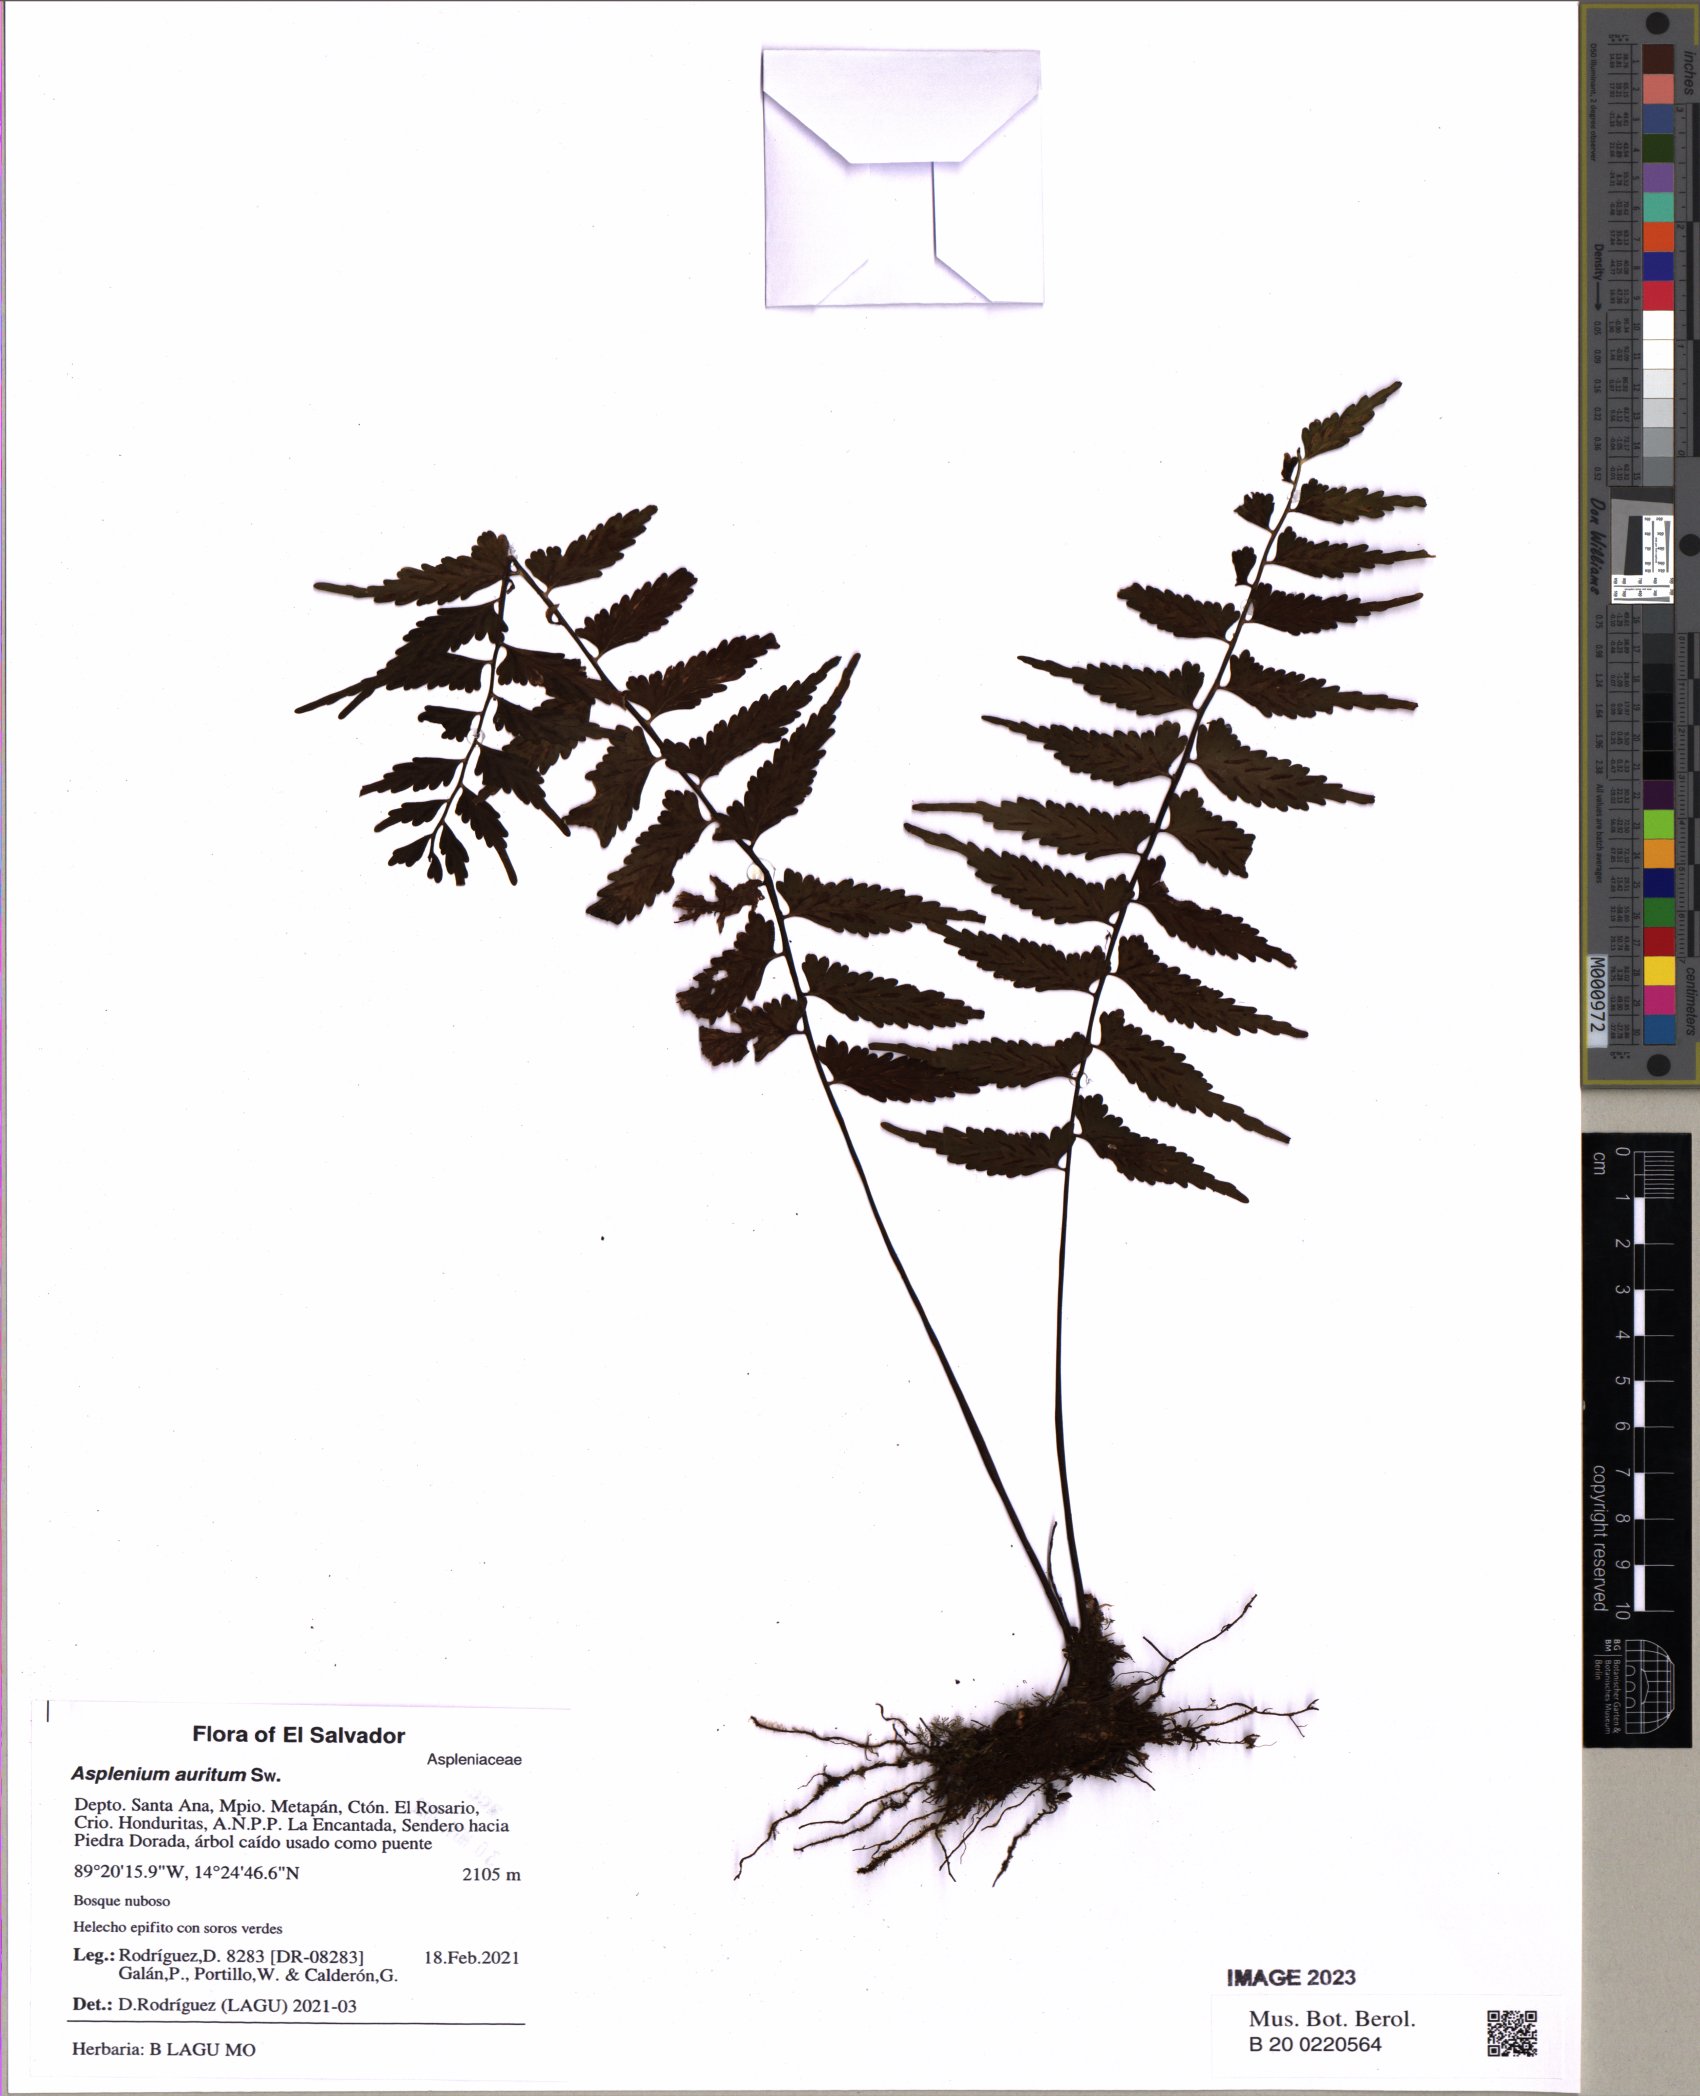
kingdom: Plantae
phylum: Tracheophyta
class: Polypodiopsida
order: Polypodiales
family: Aspleniaceae
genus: Asplenium
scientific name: Asplenium auritum
